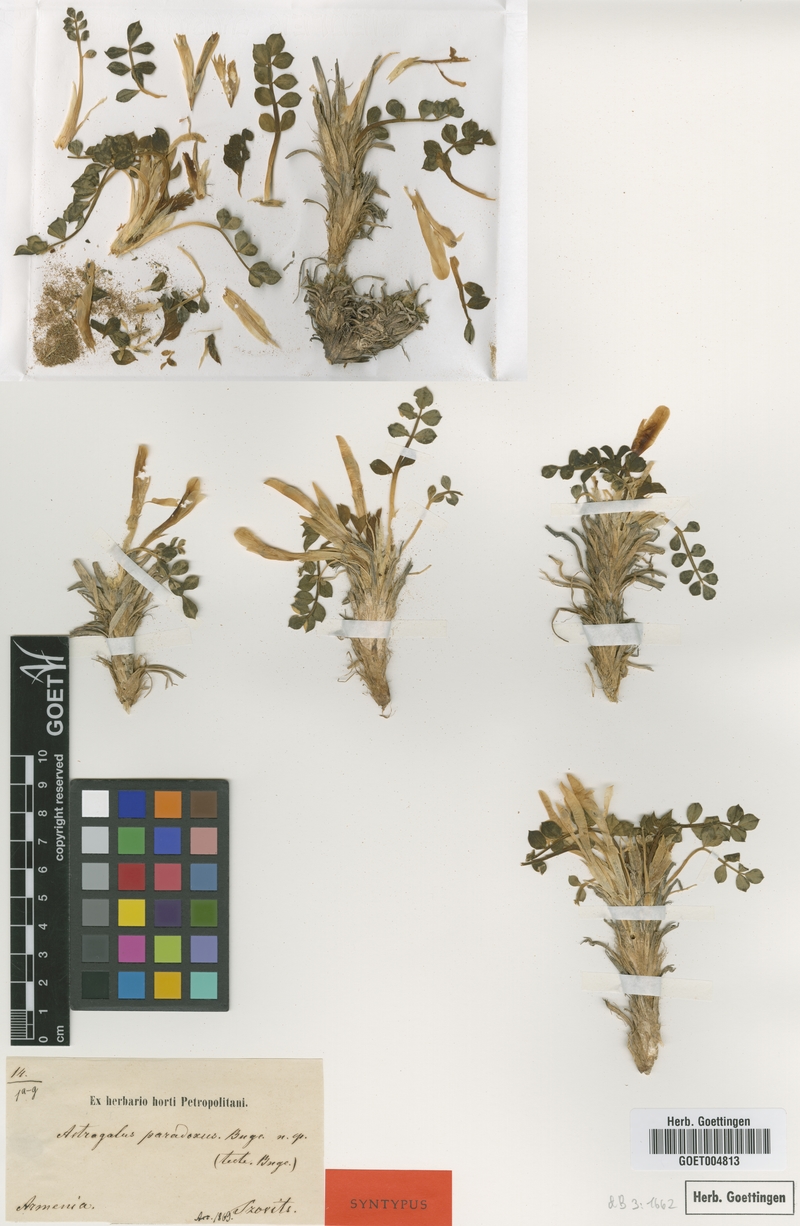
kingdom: Plantae
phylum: Tracheophyta
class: Magnoliopsida
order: Fabales
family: Fabaceae
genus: Astragalus
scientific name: Astragalus paradoxus
